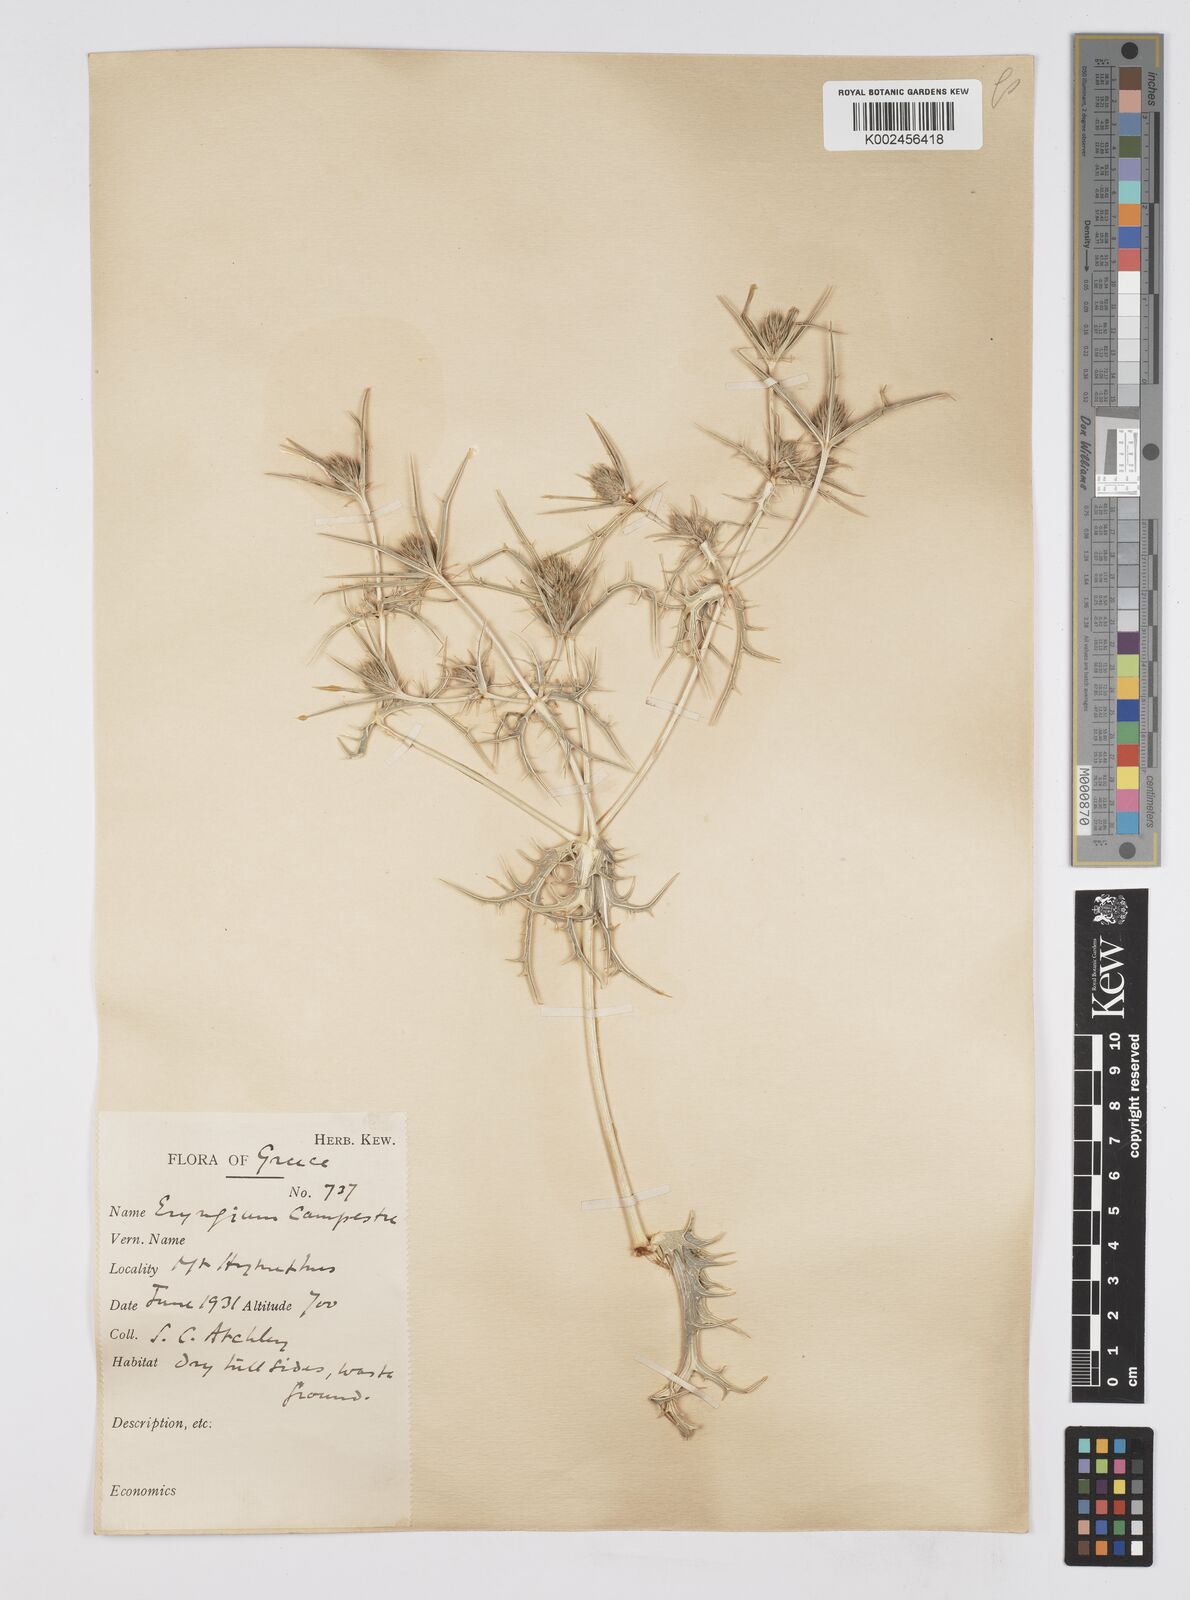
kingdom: Plantae
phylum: Tracheophyta
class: Magnoliopsida
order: Apiales
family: Apiaceae
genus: Eryngium
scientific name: Eryngium campestre
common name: Field eryngo
